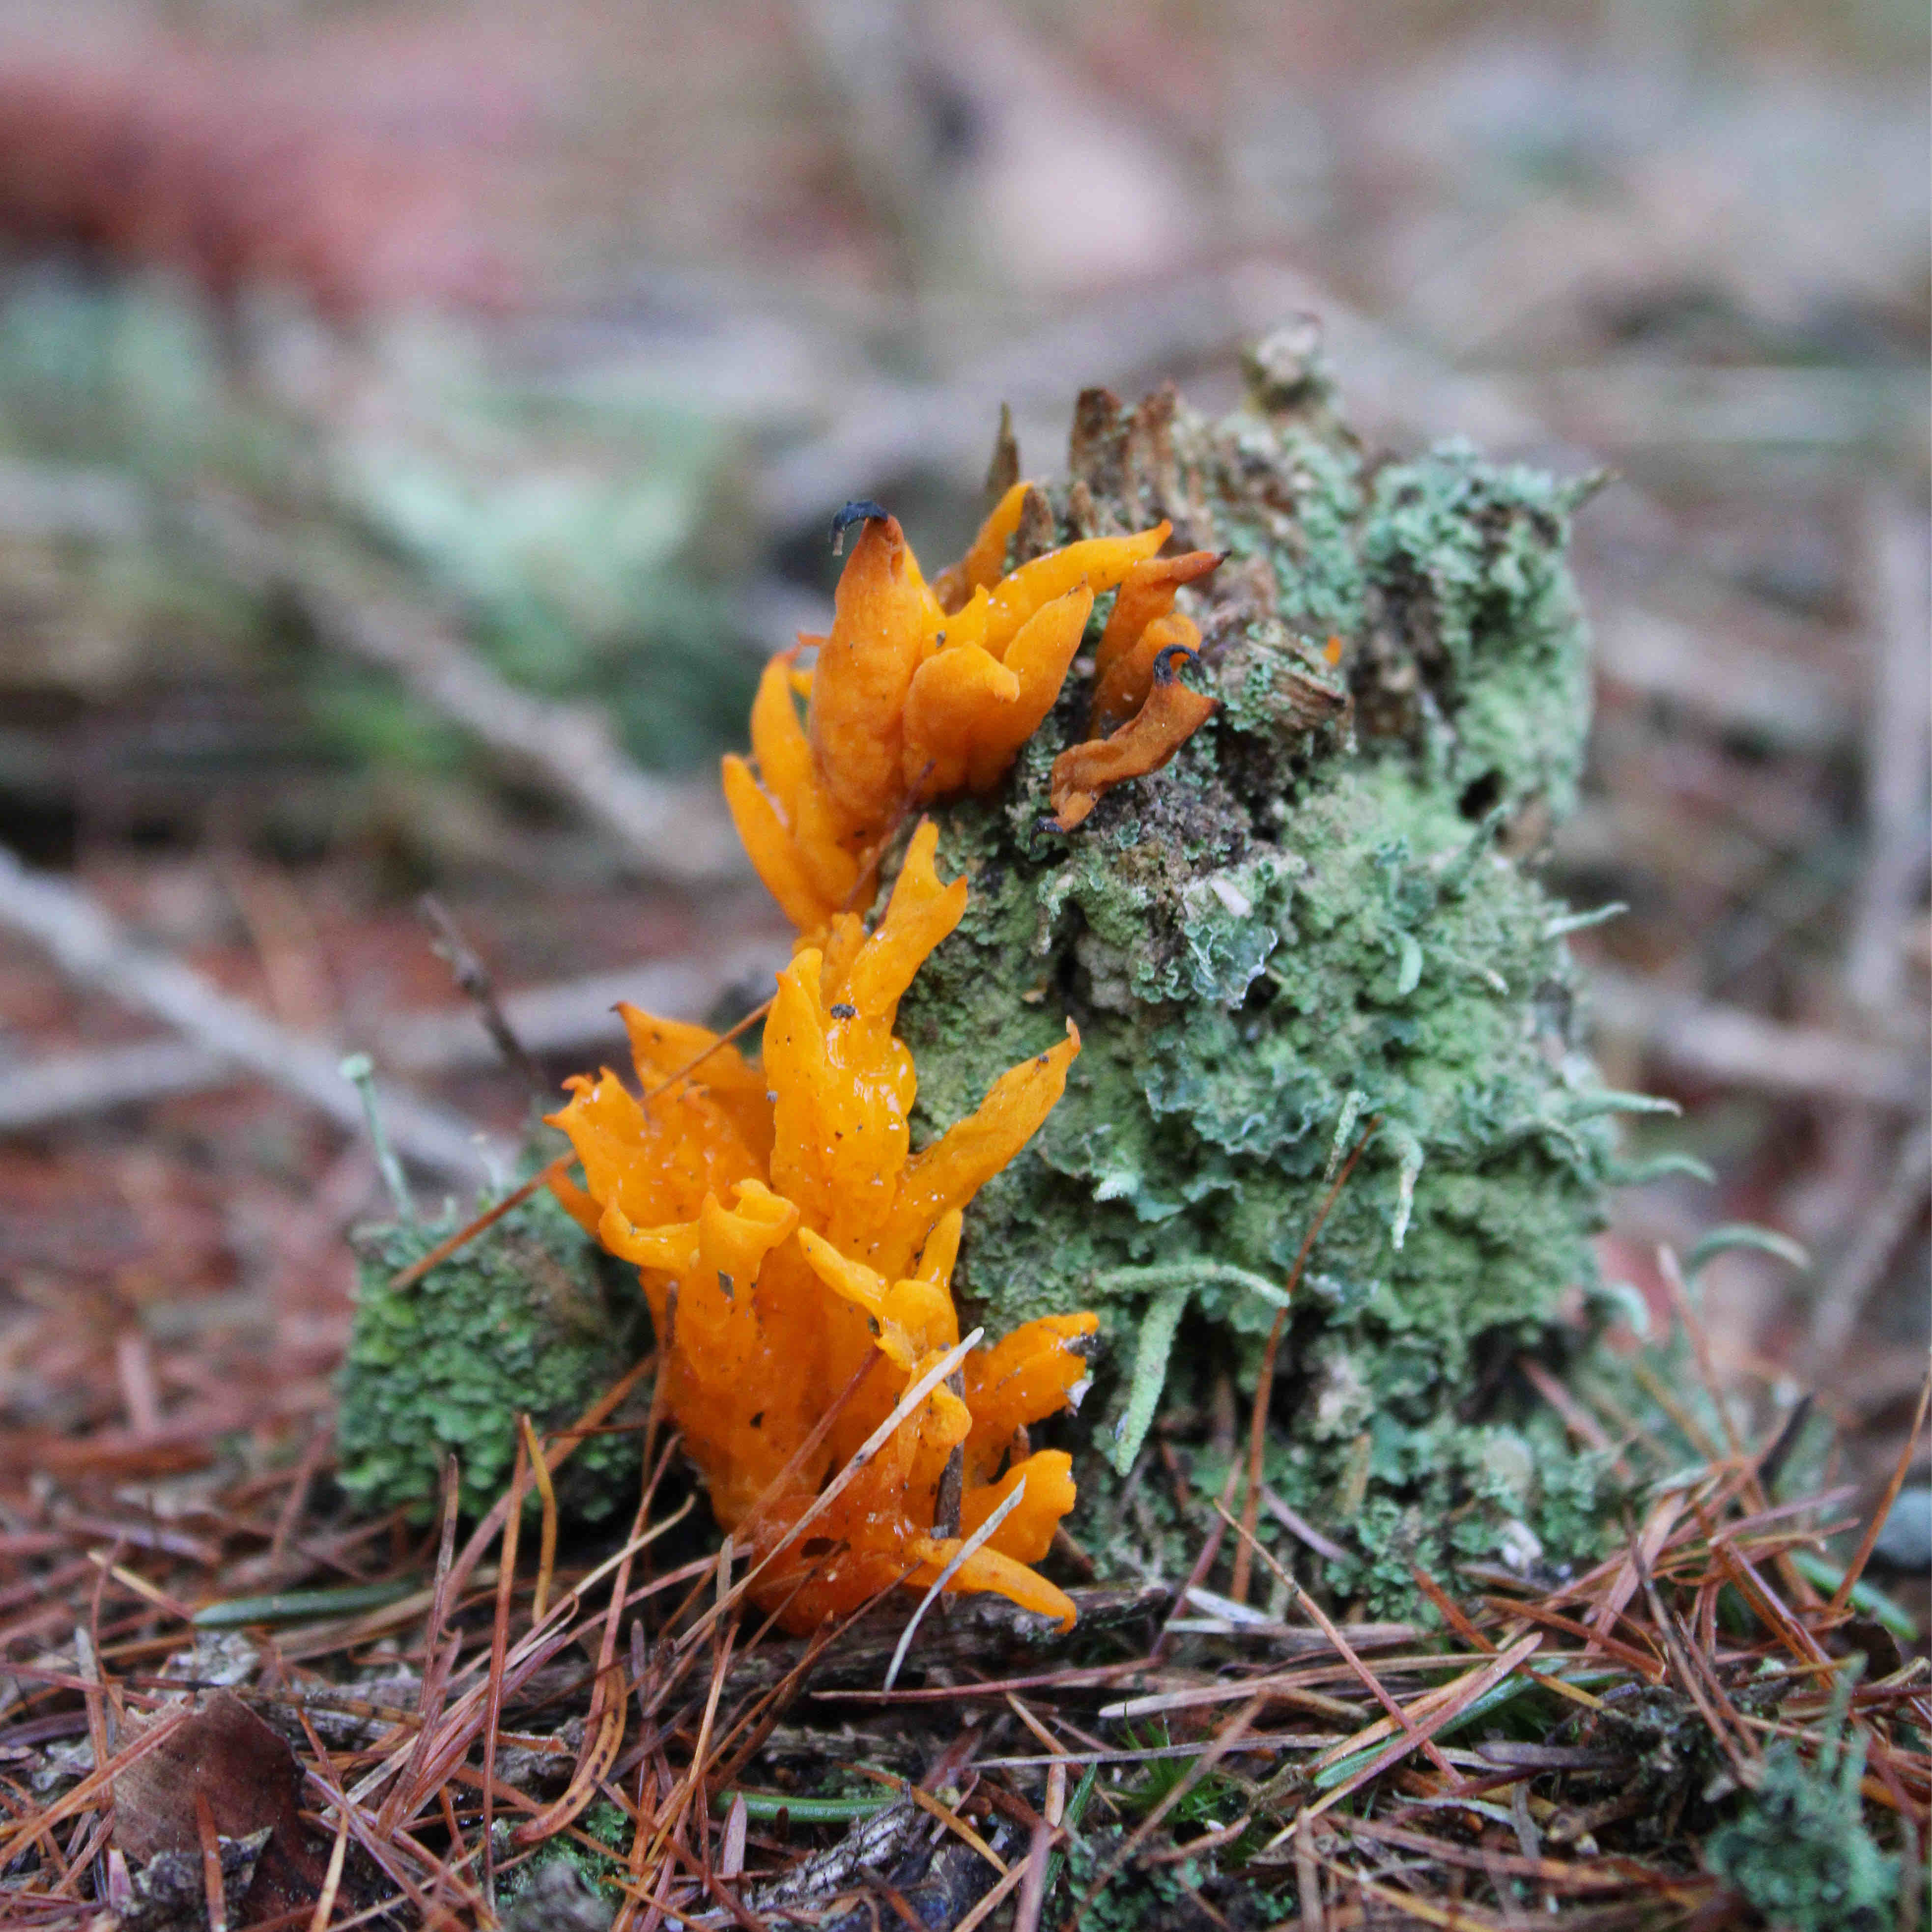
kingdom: Fungi
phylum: Basidiomycota
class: Dacrymycetes
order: Dacrymycetales
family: Dacrymycetaceae
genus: Calocera
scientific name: Calocera viscosa
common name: almindelig guldgaffel
